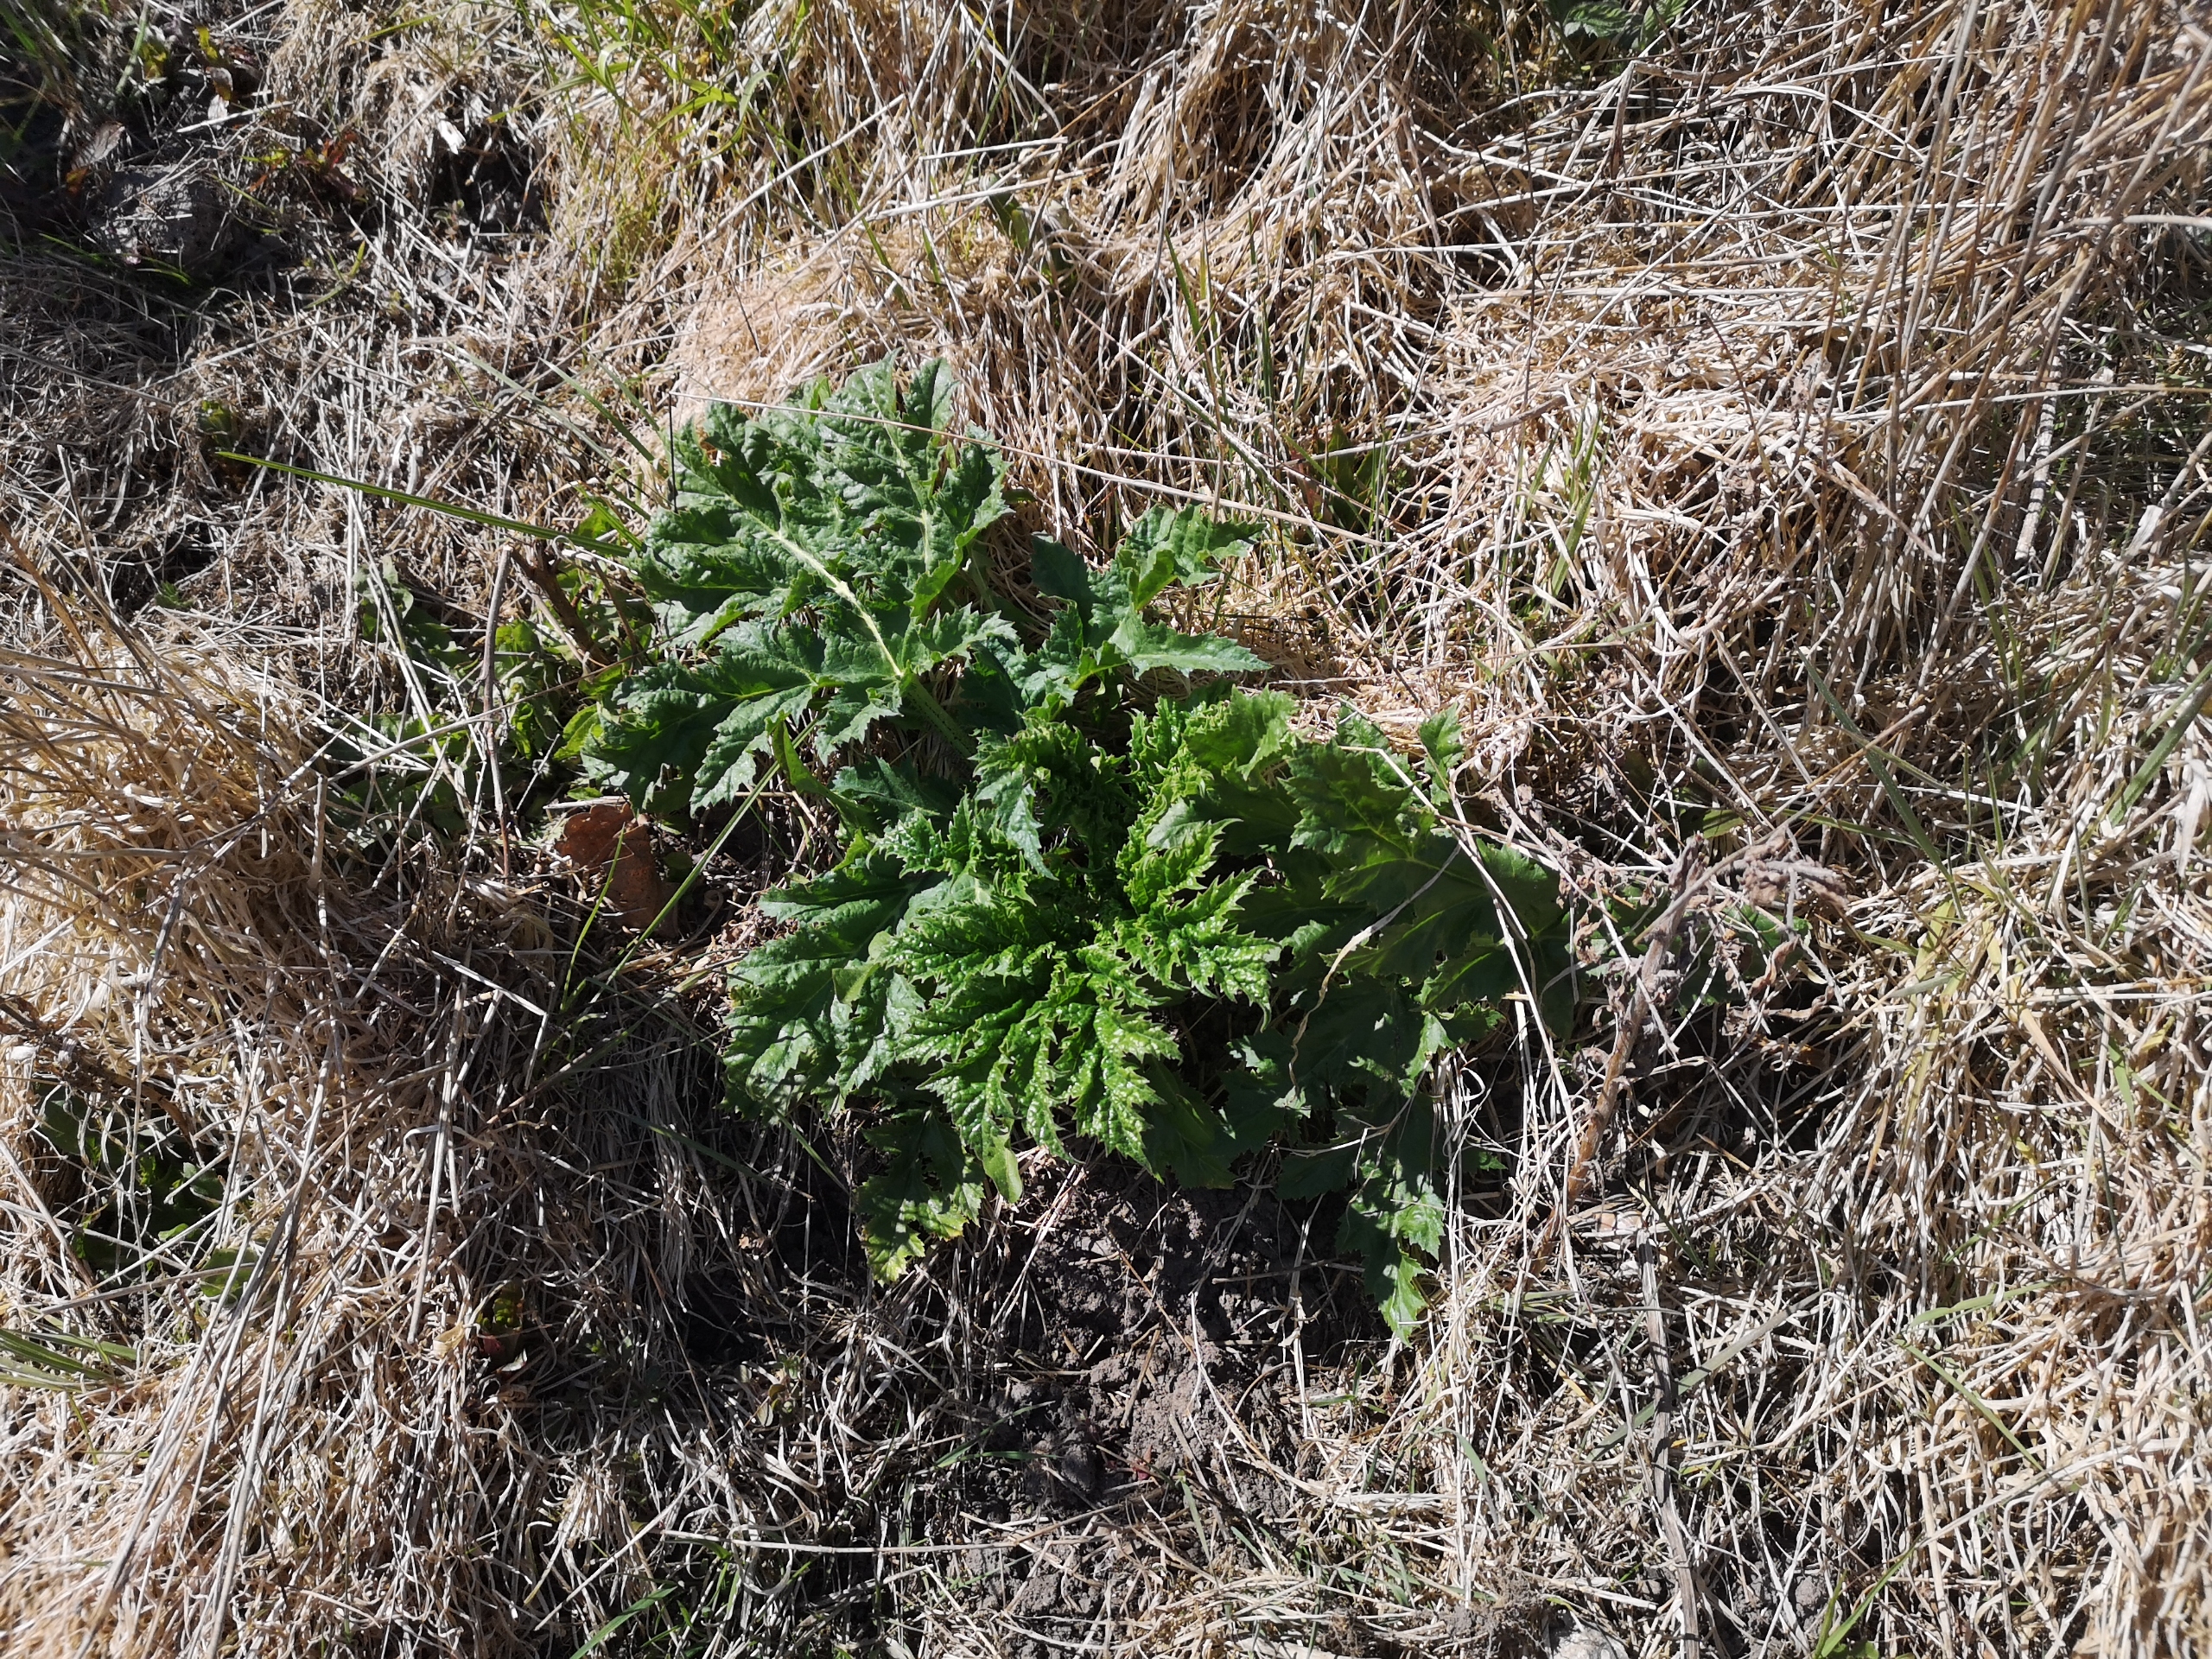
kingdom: Plantae
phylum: Tracheophyta
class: Magnoliopsida
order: Apiales
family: Apiaceae
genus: Heracleum
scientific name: Heracleum mantegazzianum
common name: Kæmpe-bjørneklo
